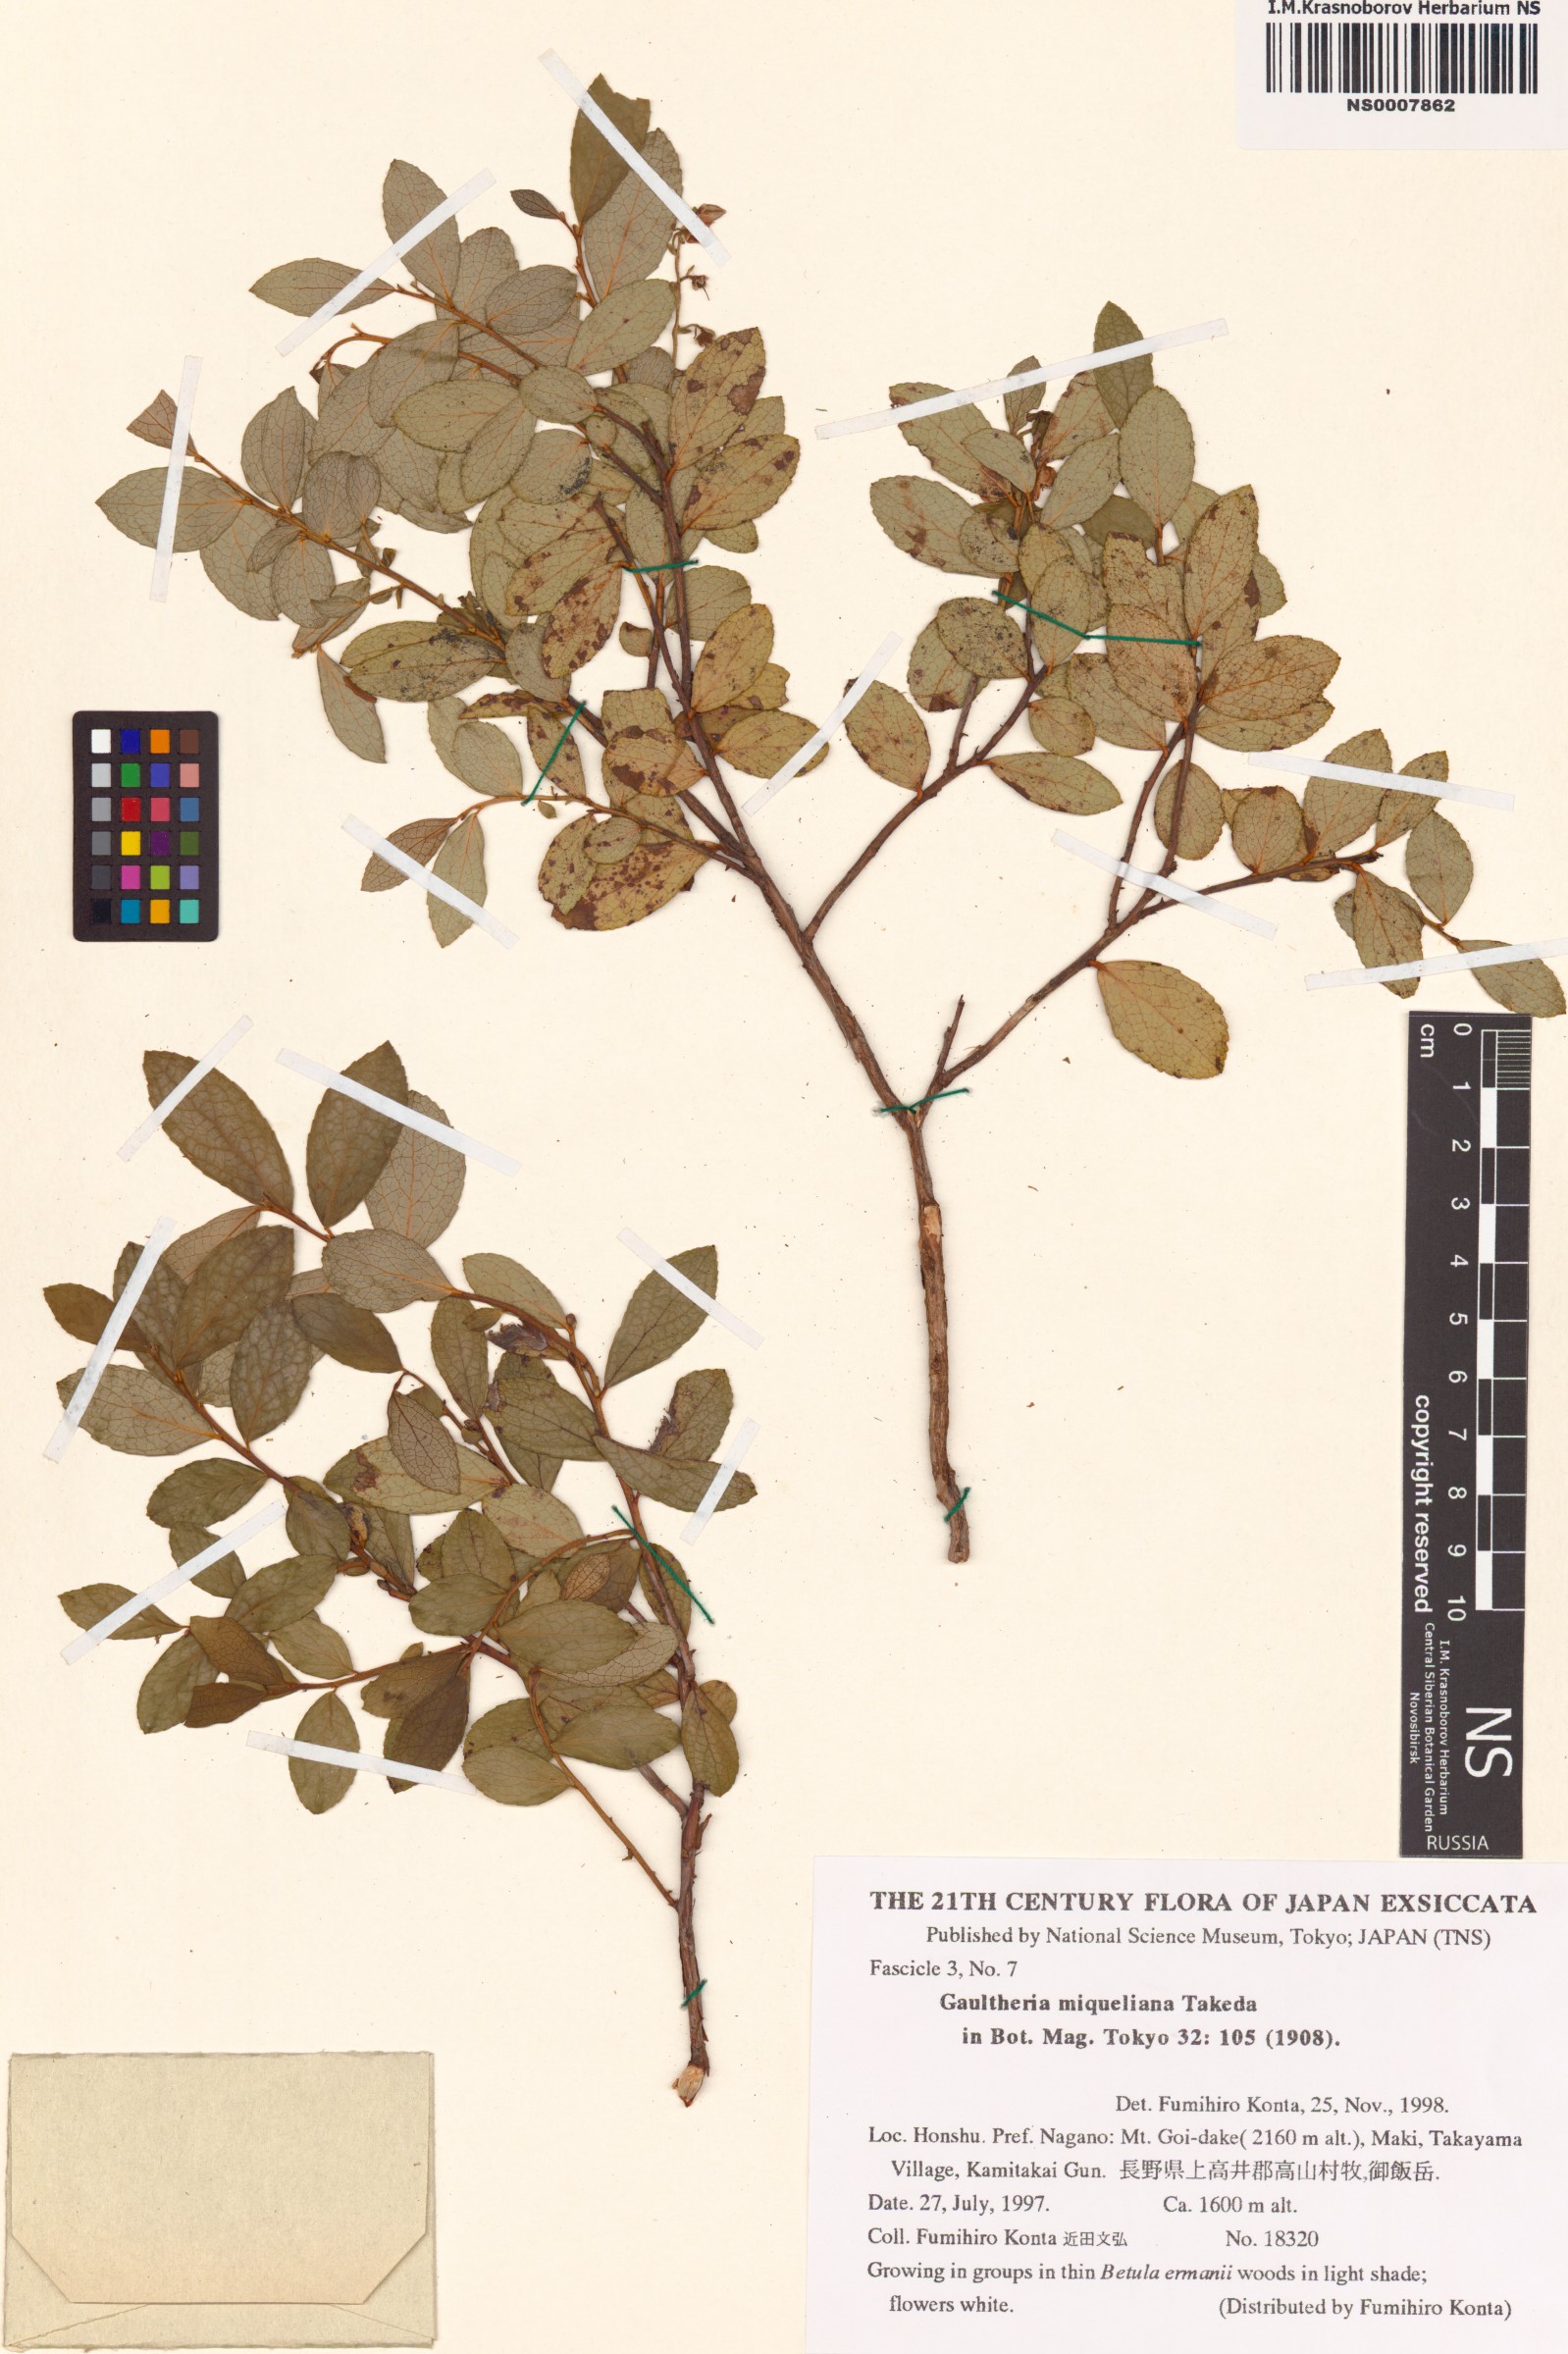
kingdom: Plantae
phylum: Tracheophyta
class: Magnoliopsida
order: Ericales
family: Ericaceae
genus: Gaultheria
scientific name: Gaultheria miqueliana
